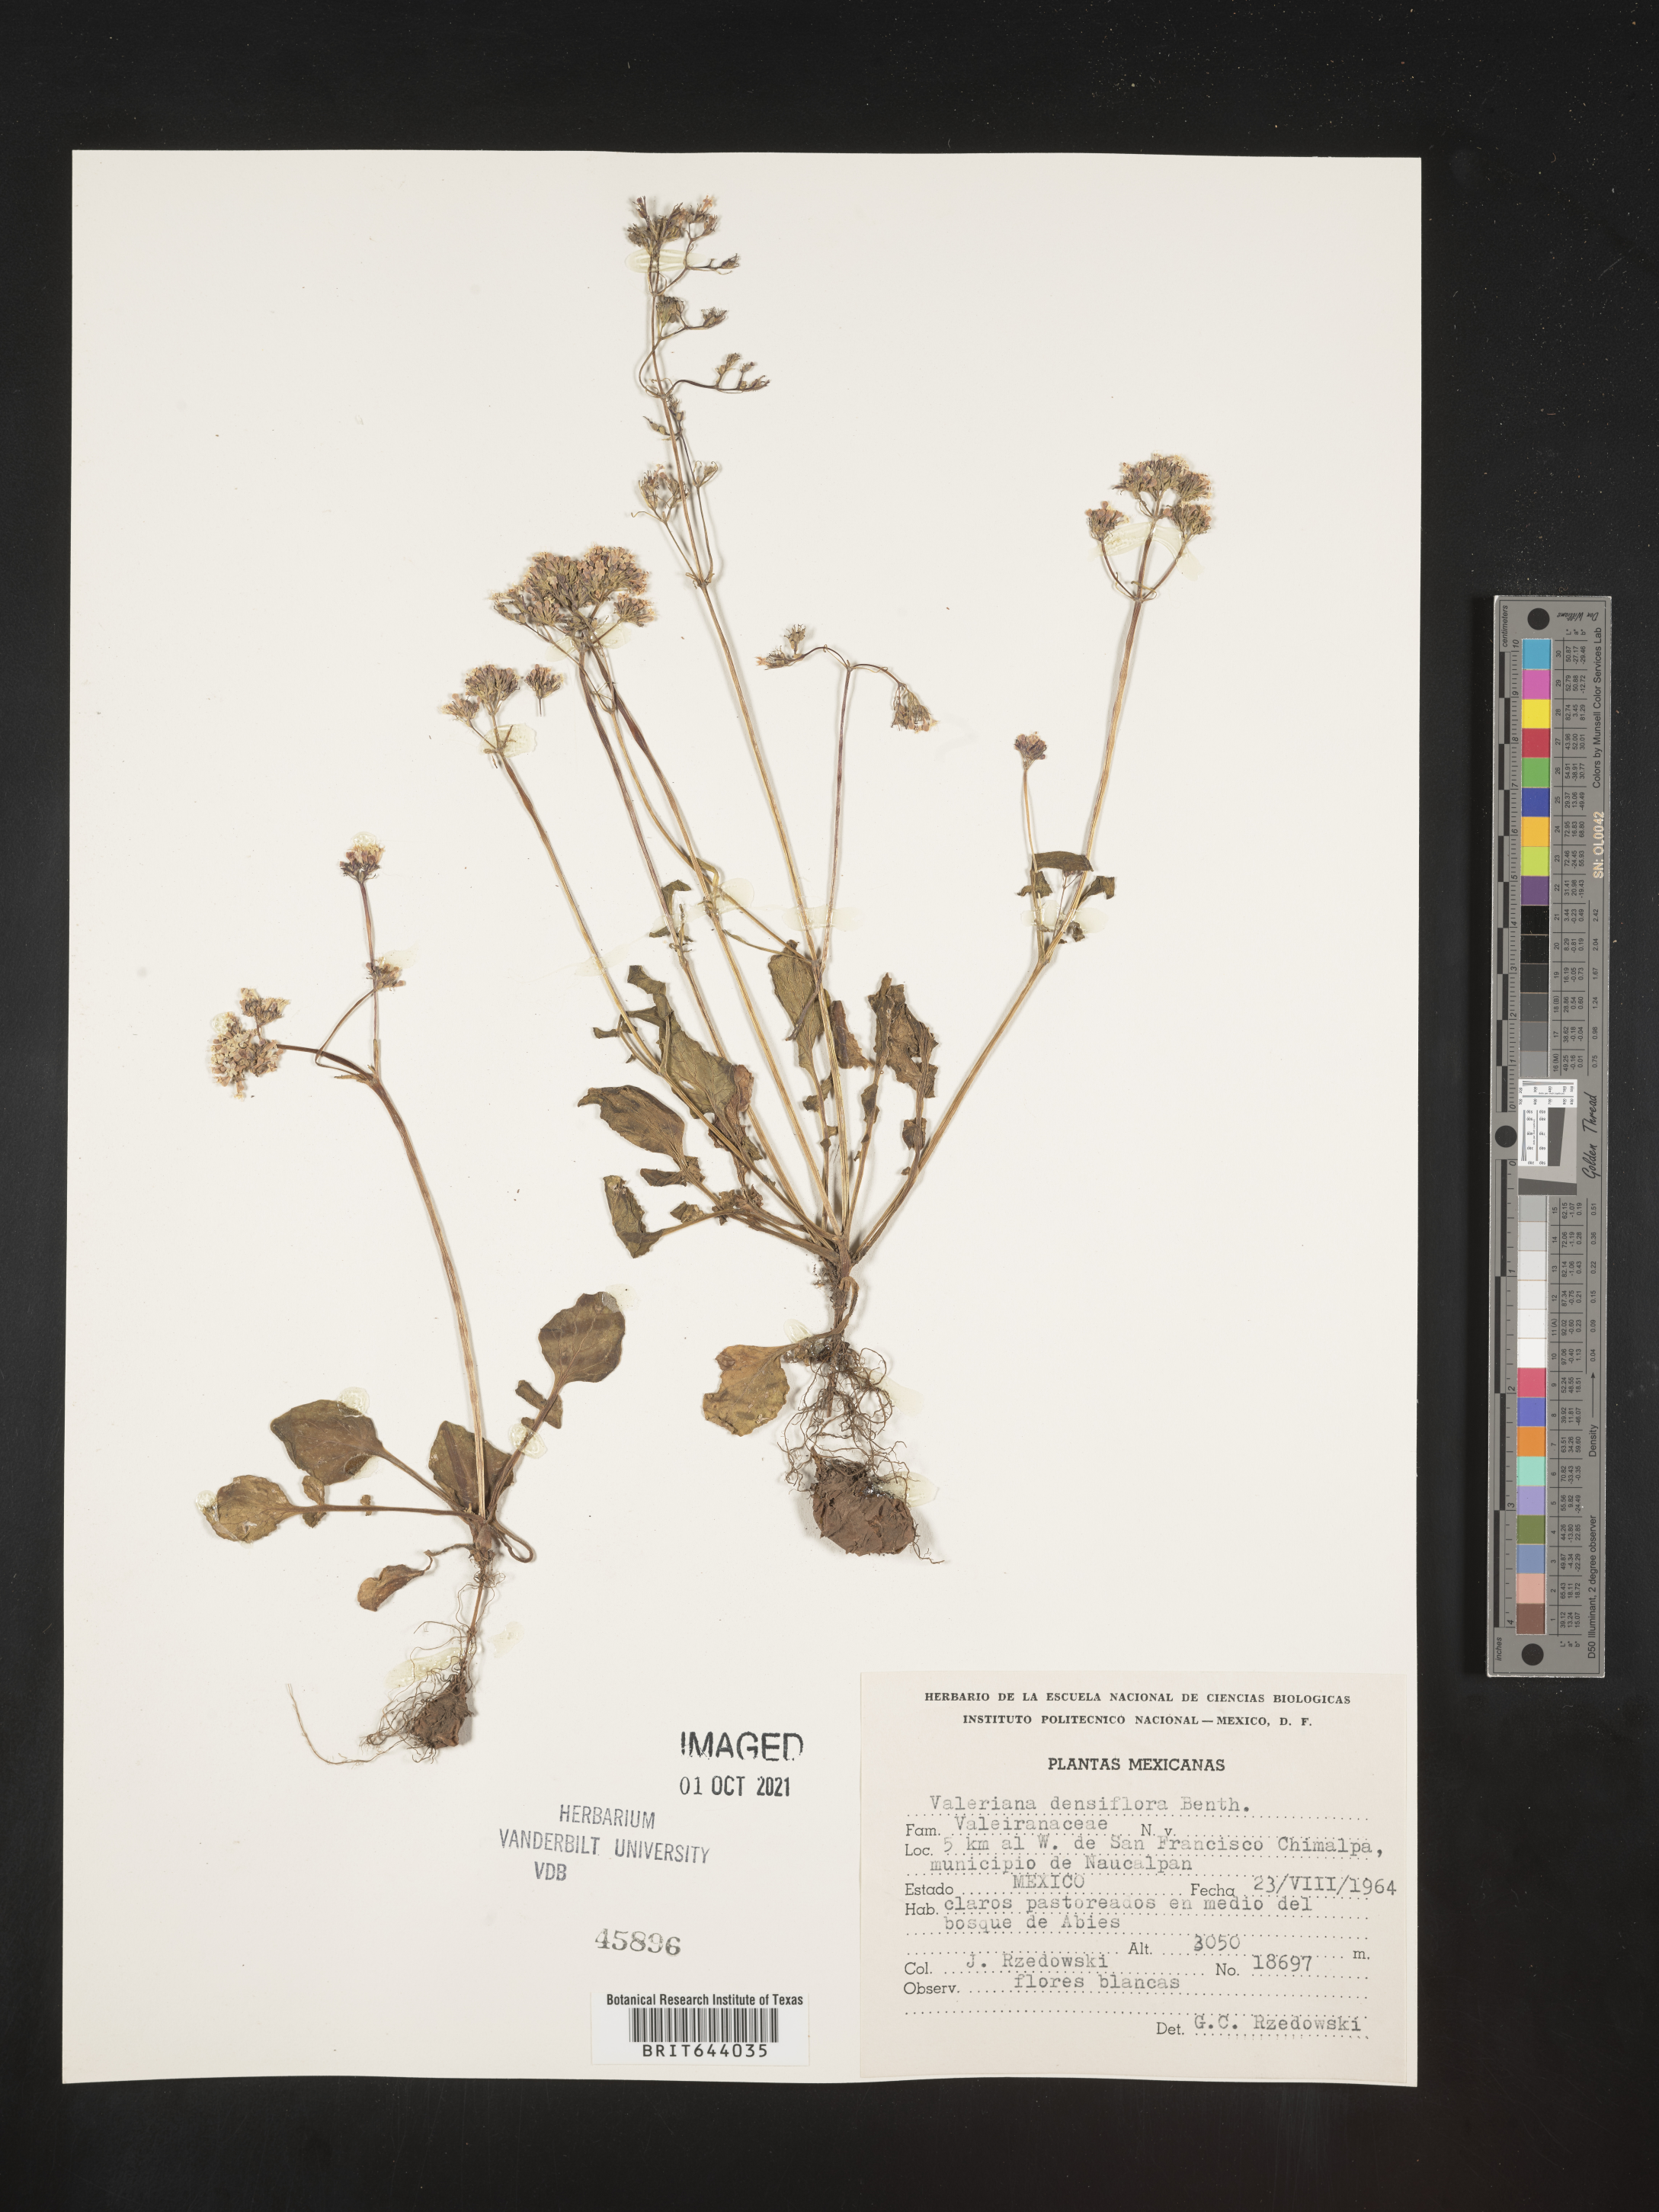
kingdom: Plantae
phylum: Tracheophyta
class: Magnoliopsida
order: Dipsacales
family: Caprifoliaceae
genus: Valeriana
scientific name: Valeriana
